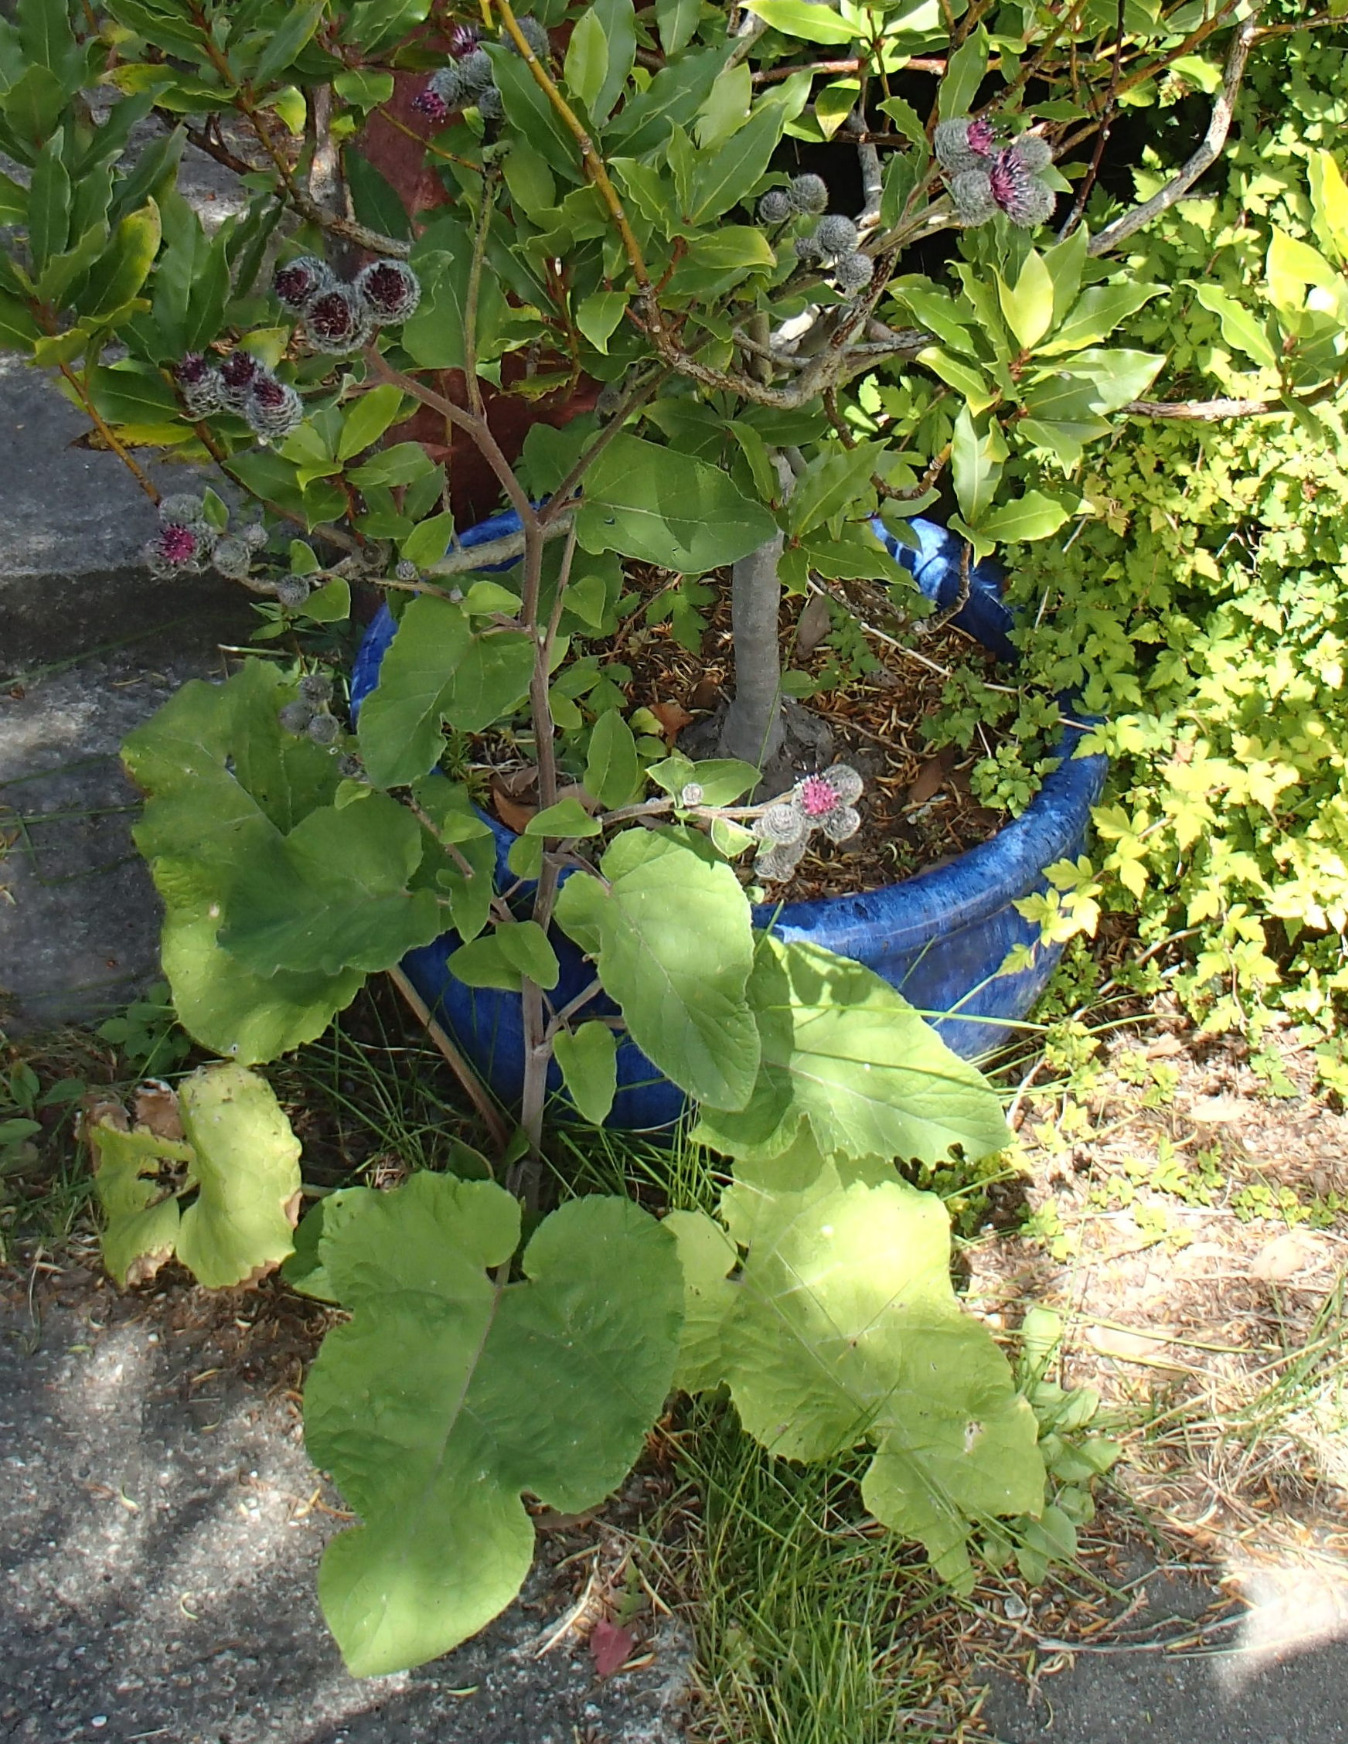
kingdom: Plantae
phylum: Tracheophyta
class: Magnoliopsida
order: Asterales
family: Asteraceae
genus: Arctium
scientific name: Arctium tomentosum
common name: Filtet burre
